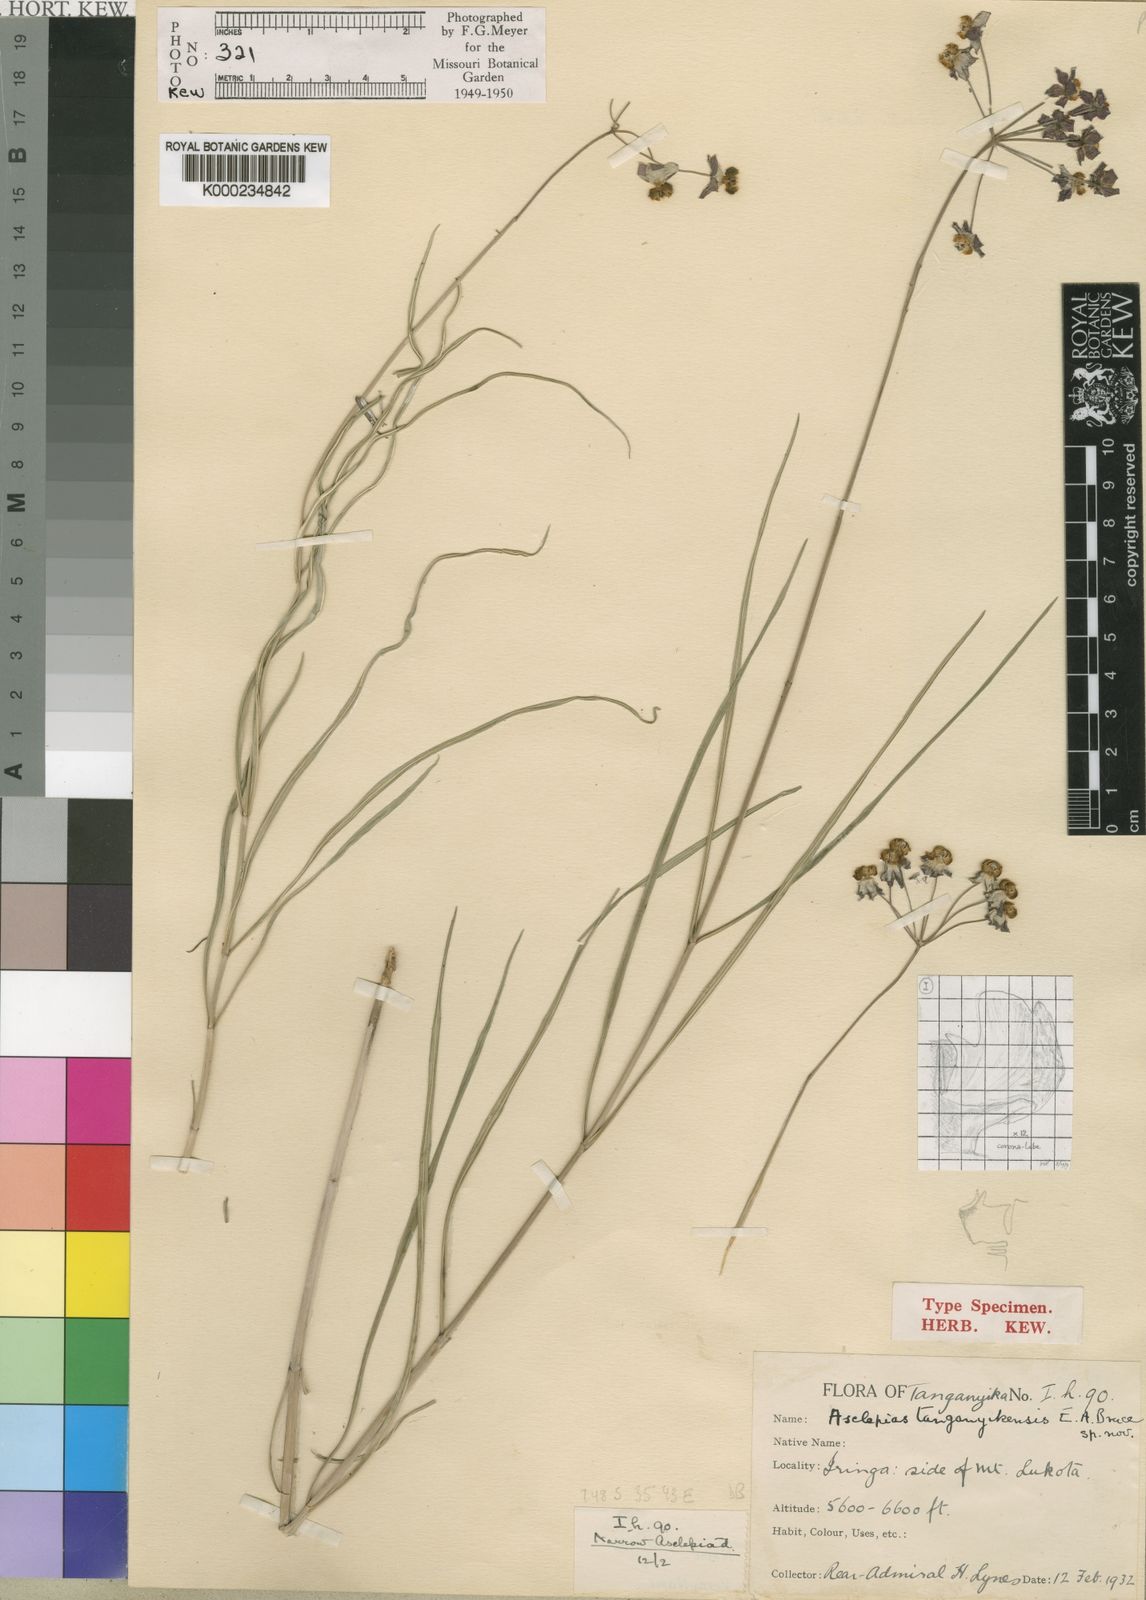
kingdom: Plantae
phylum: Tracheophyta
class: Magnoliopsida
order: Gentianales
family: Apocynaceae
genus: Asclepias
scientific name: Asclepias tanganyikensis
